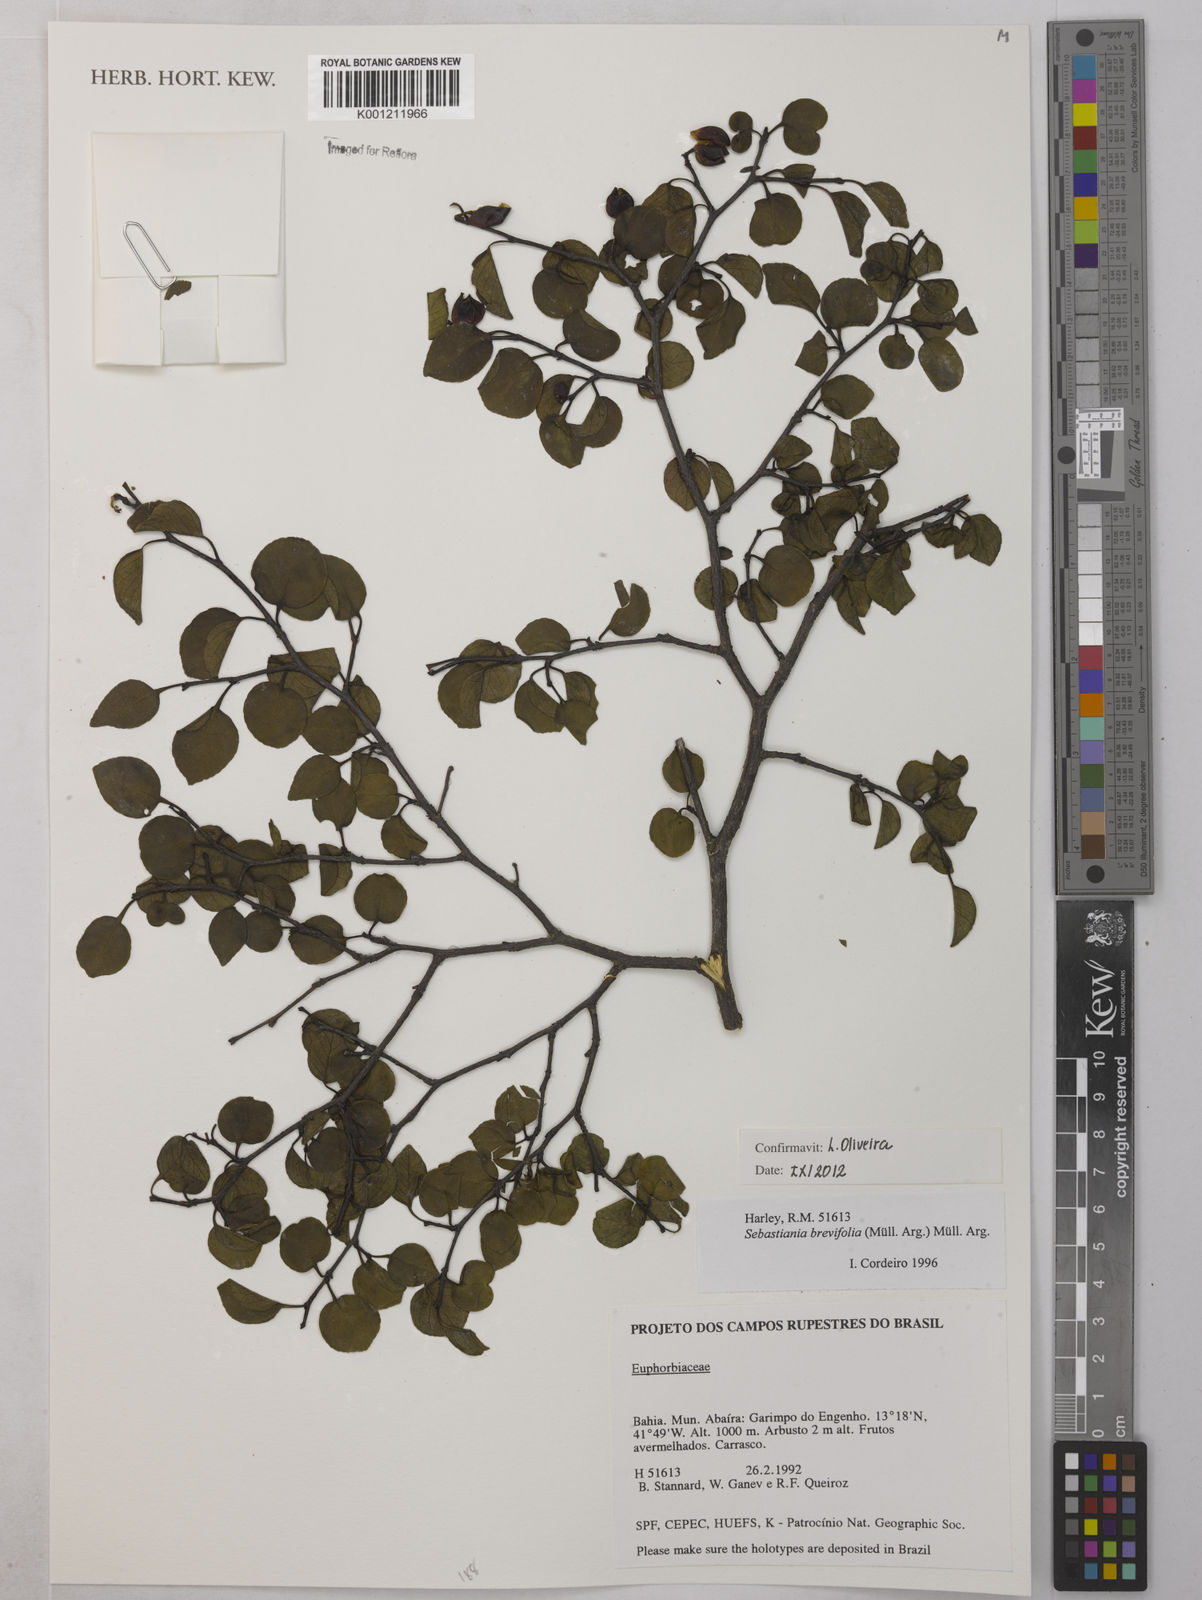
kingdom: Plantae
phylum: Tracheophyta
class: Magnoliopsida
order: Malpighiales
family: Euphorbiaceae
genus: Sebastiania
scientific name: Sebastiania
